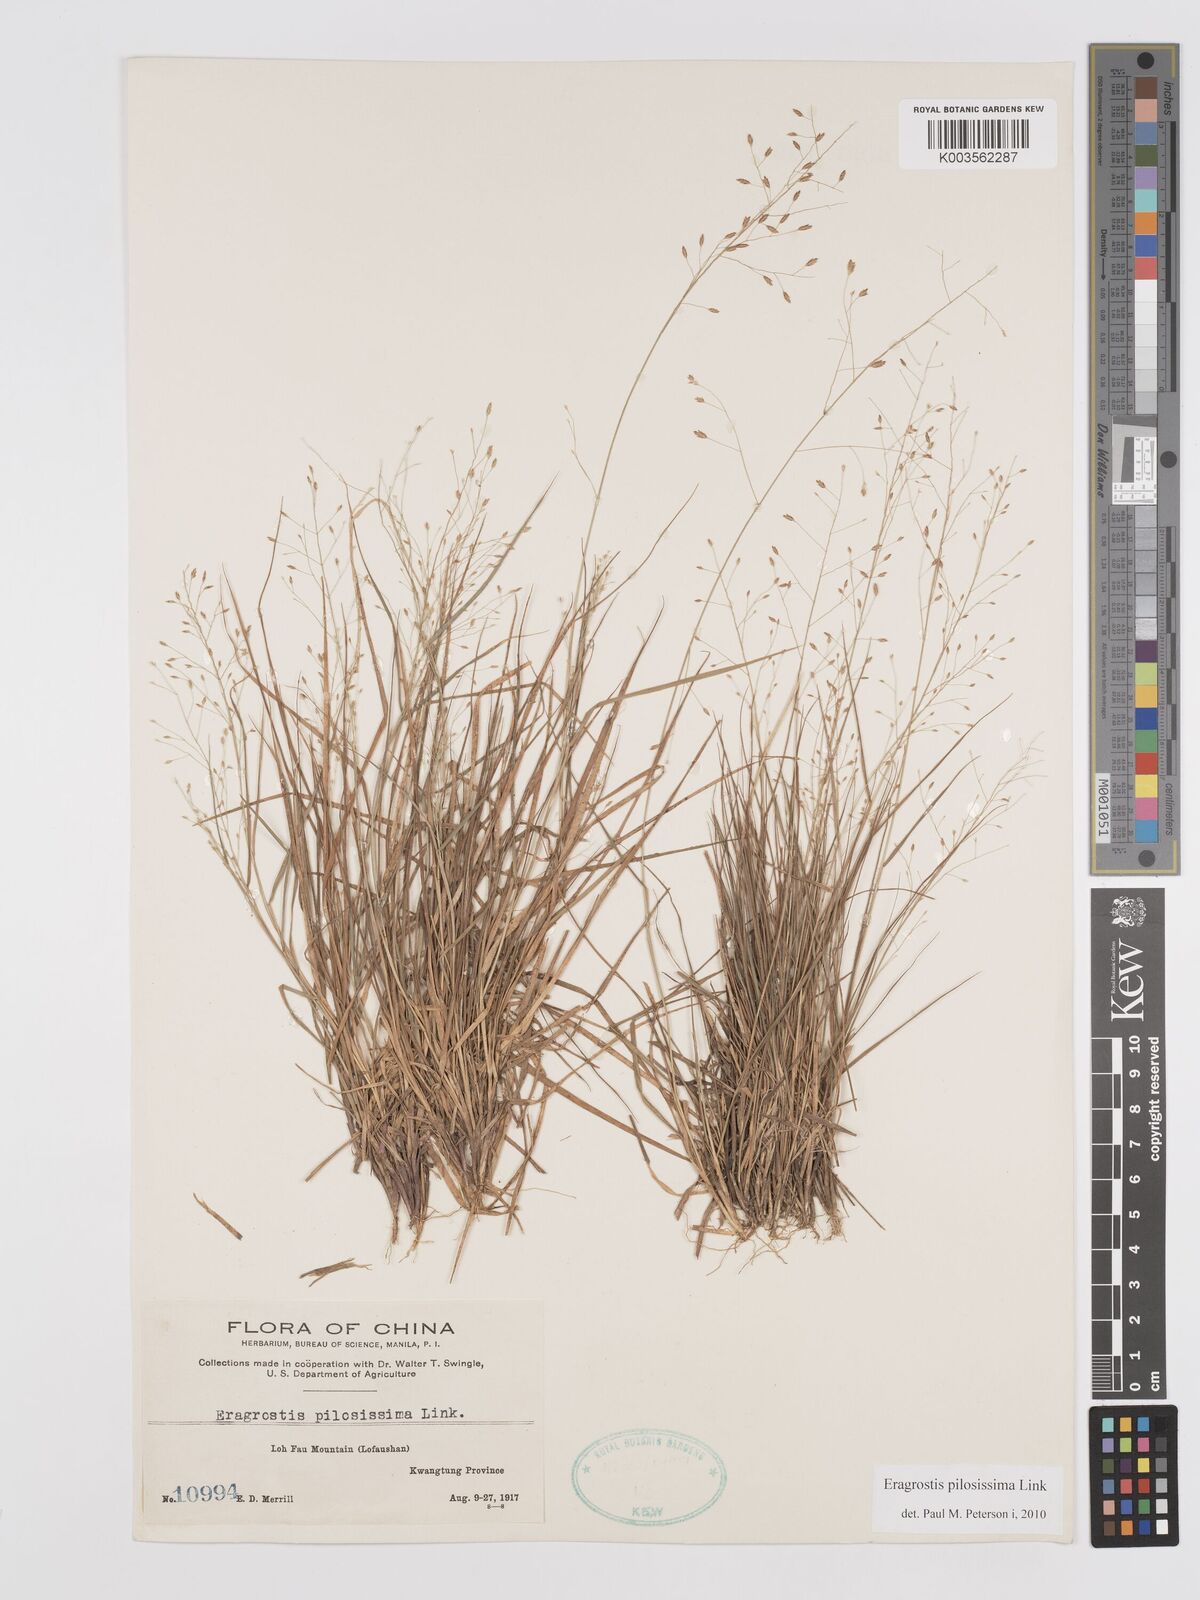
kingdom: Plantae
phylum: Tracheophyta
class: Liliopsida
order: Poales
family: Poaceae
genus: Eragrostis
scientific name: Eragrostis pilosissima
